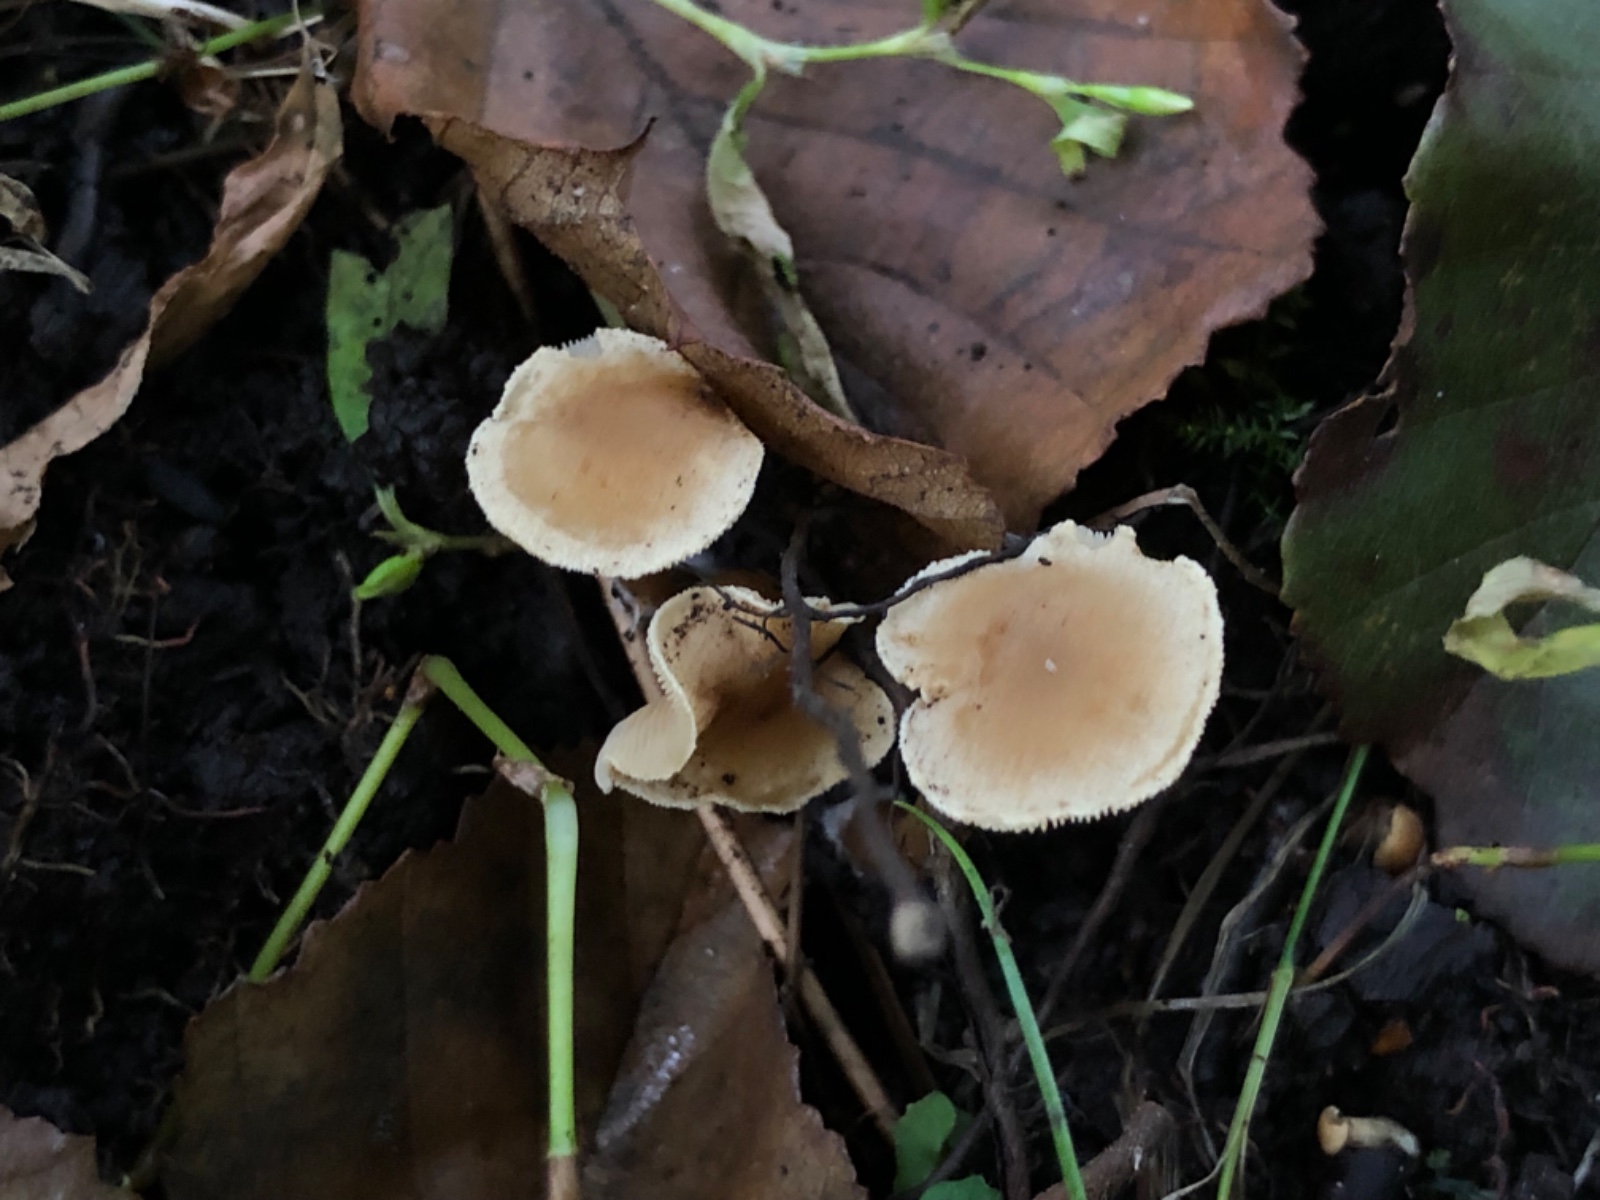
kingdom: Fungi
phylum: Basidiomycota
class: Agaricomycetes
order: Agaricales
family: Hymenogastraceae
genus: Naucoria
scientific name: Naucoria escharioides
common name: lys elle-knaphat
